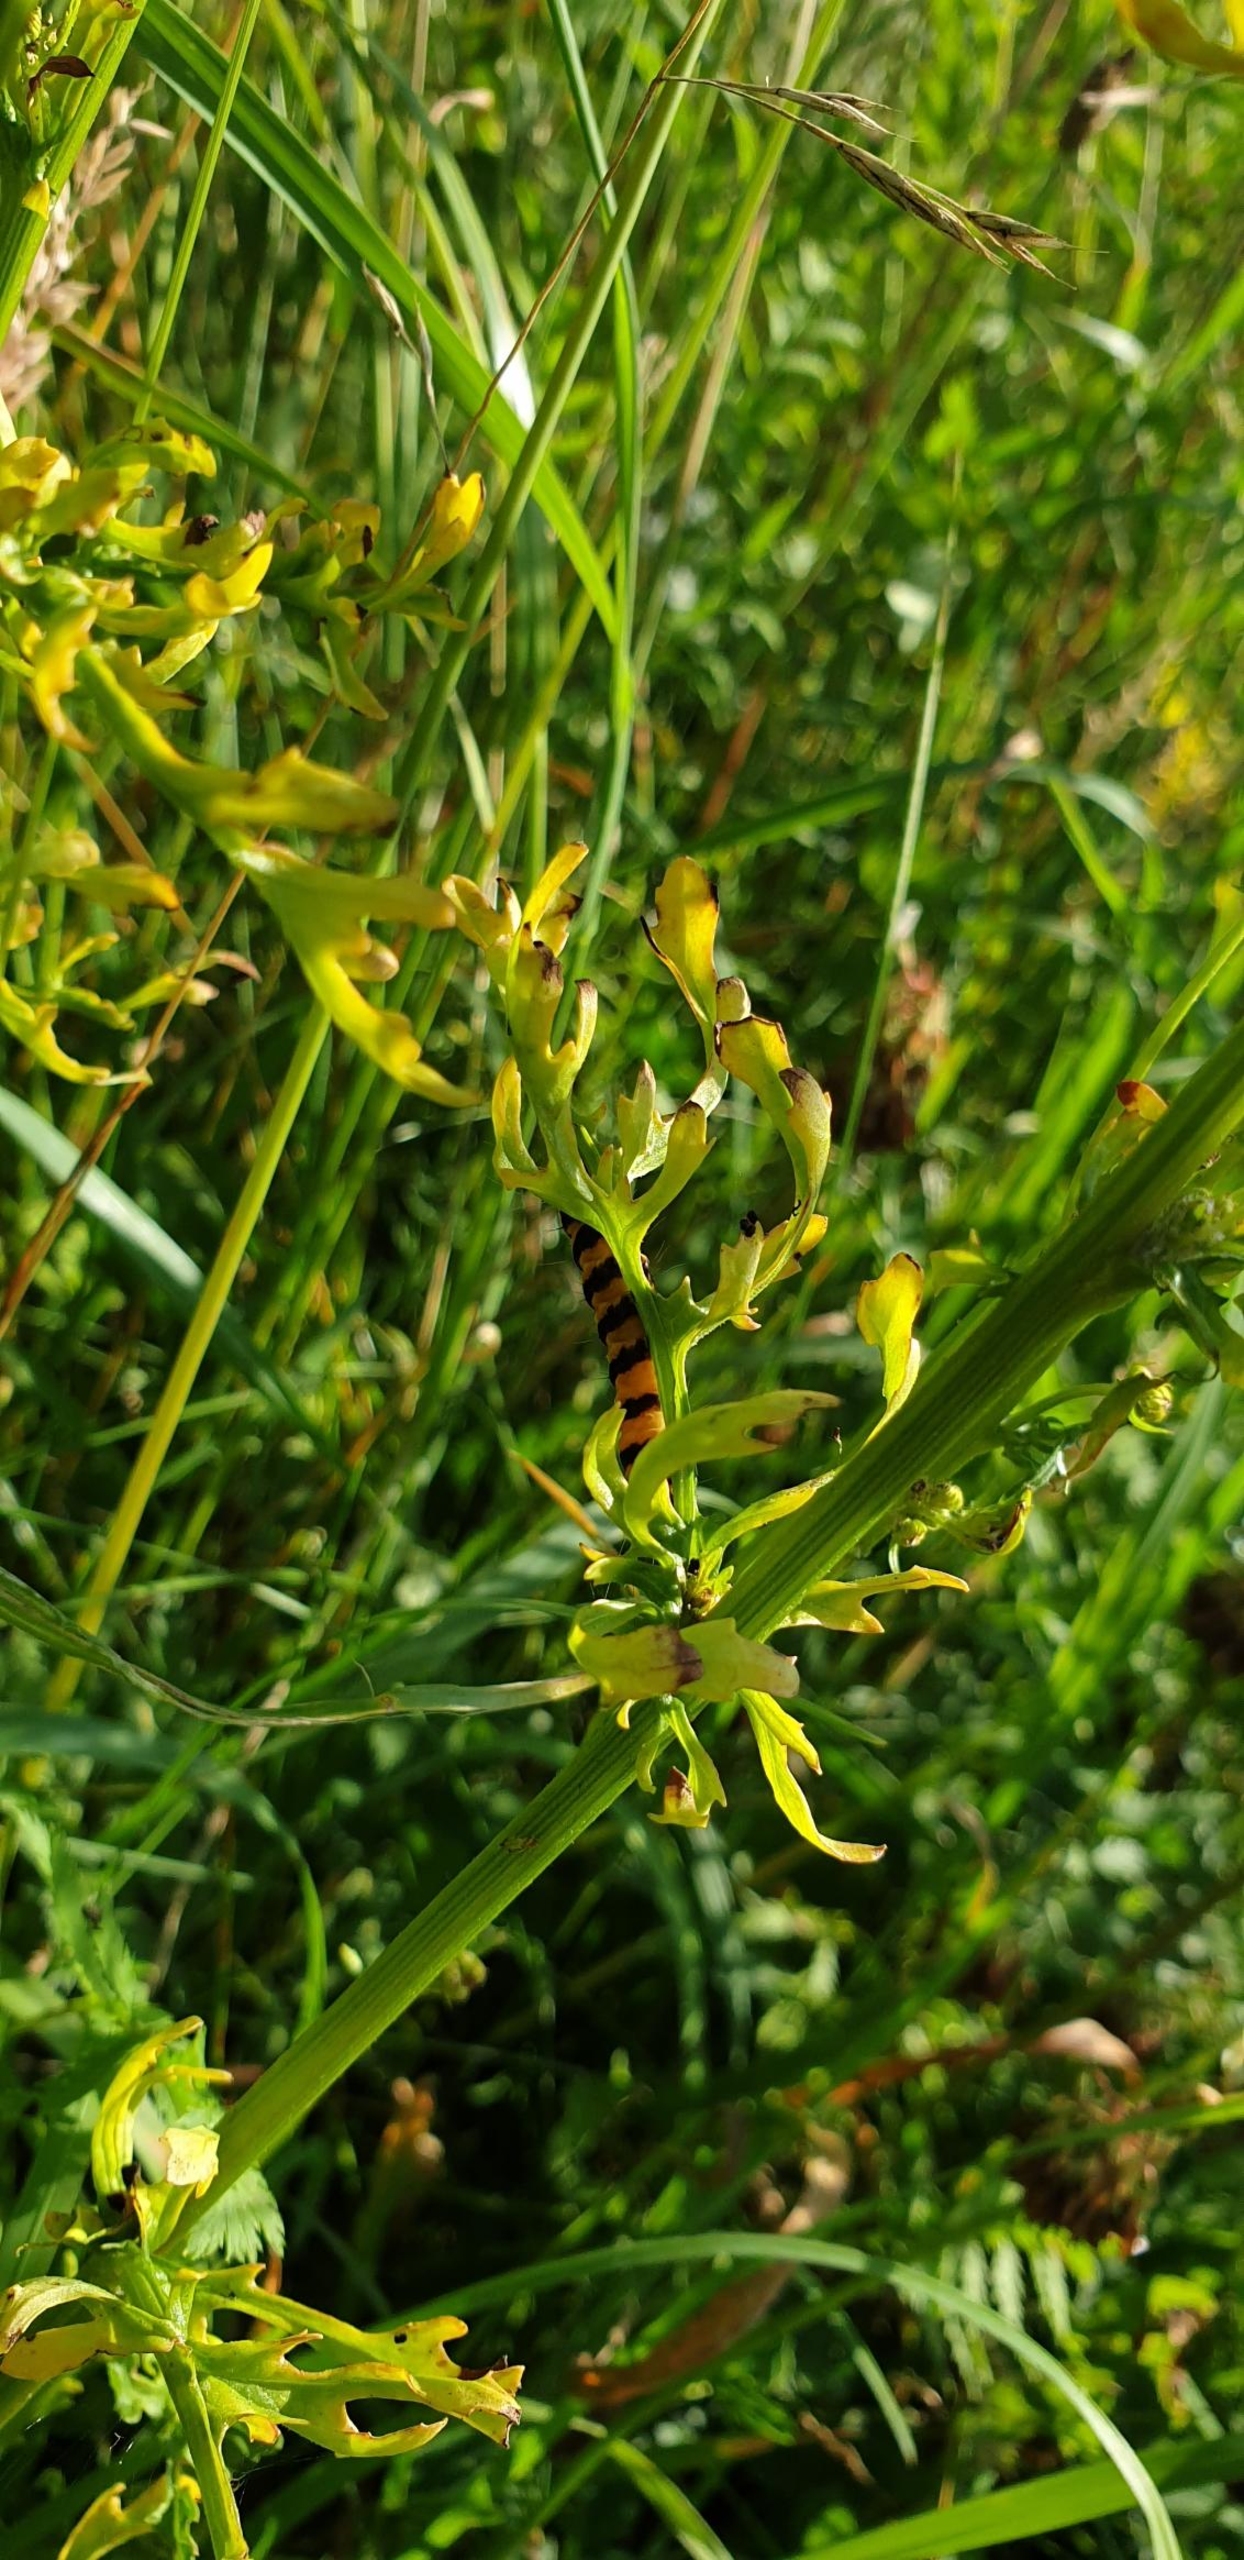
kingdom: Animalia
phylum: Arthropoda
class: Insecta
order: Lepidoptera
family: Erebidae
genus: Tyria
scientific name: Tyria jacobaeae
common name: Blodplet
